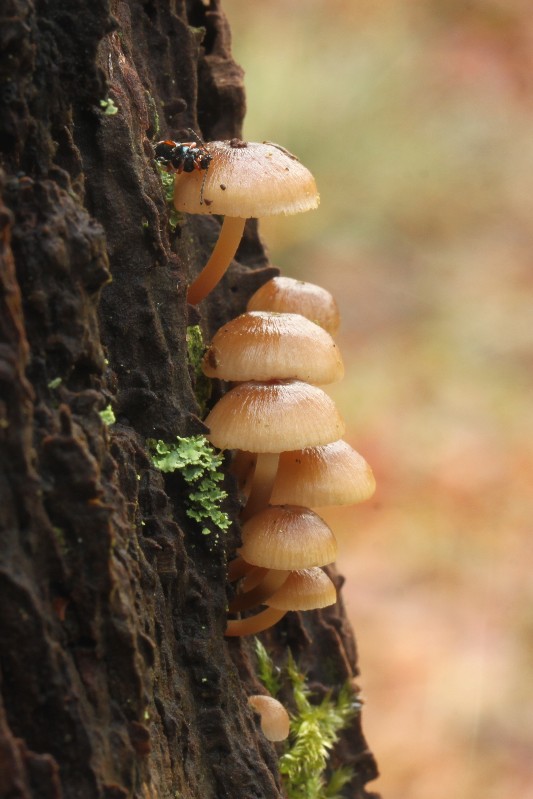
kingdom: Fungi
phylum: Basidiomycota
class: Agaricomycetes
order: Agaricales
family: Mycenaceae
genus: Mycena
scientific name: Mycena tintinnabulum
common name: vinter-huesvamp
